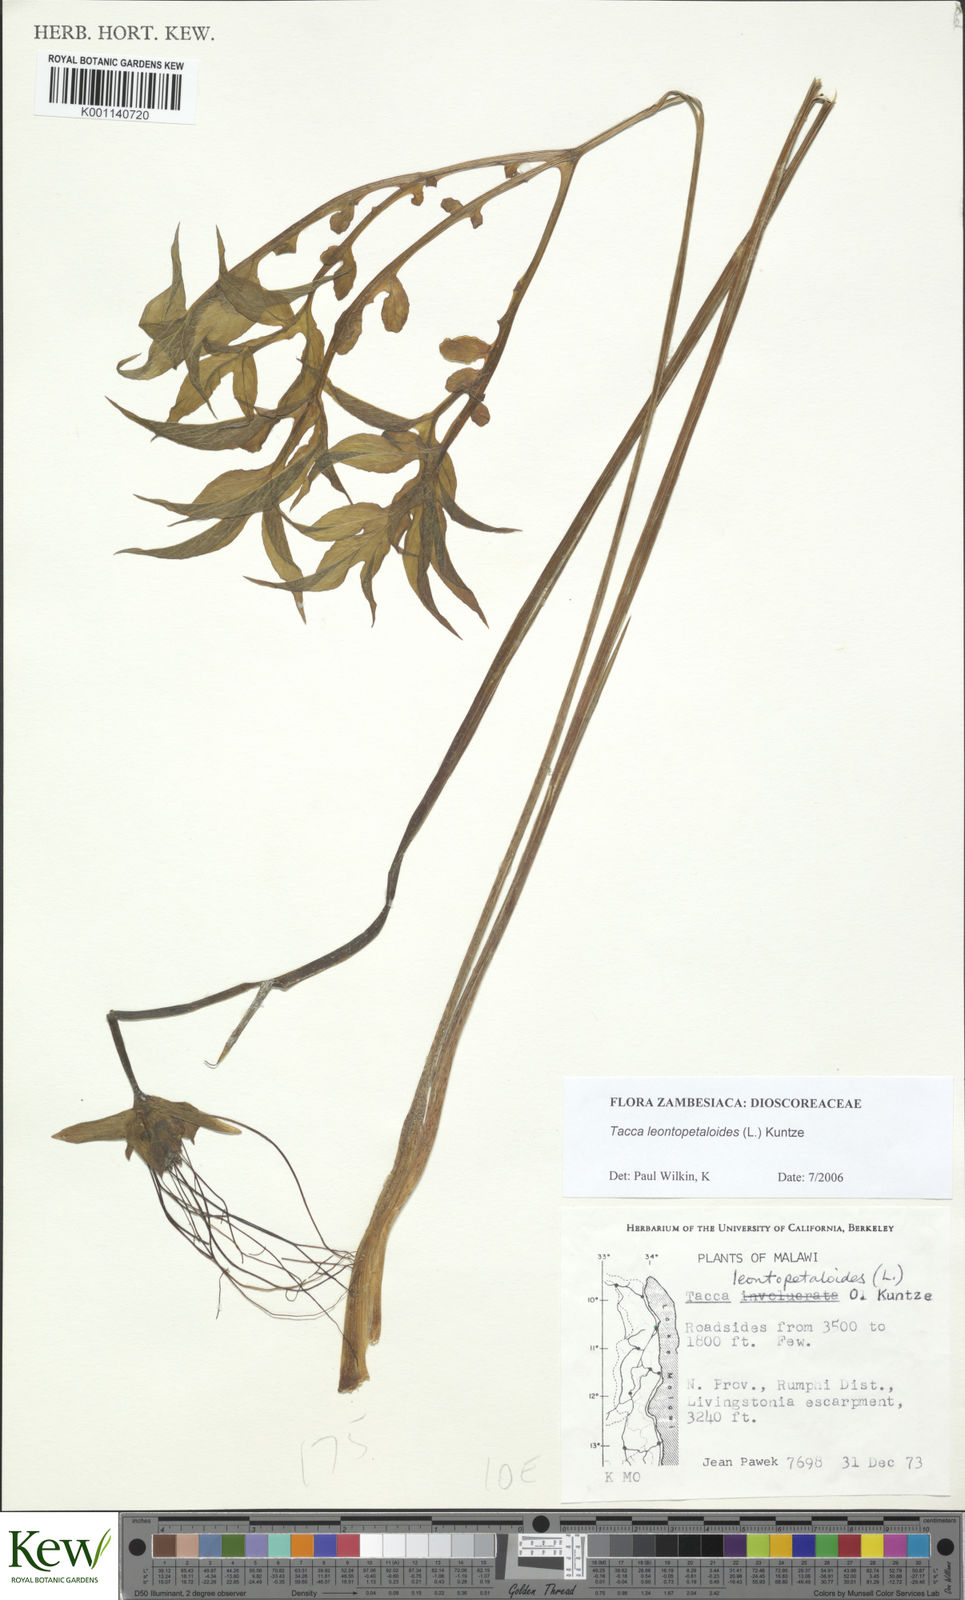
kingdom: Plantae
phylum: Tracheophyta
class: Liliopsida
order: Dioscoreales
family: Dioscoreaceae
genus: Tacca
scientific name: Tacca leontopetaloides
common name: Arrowroot
